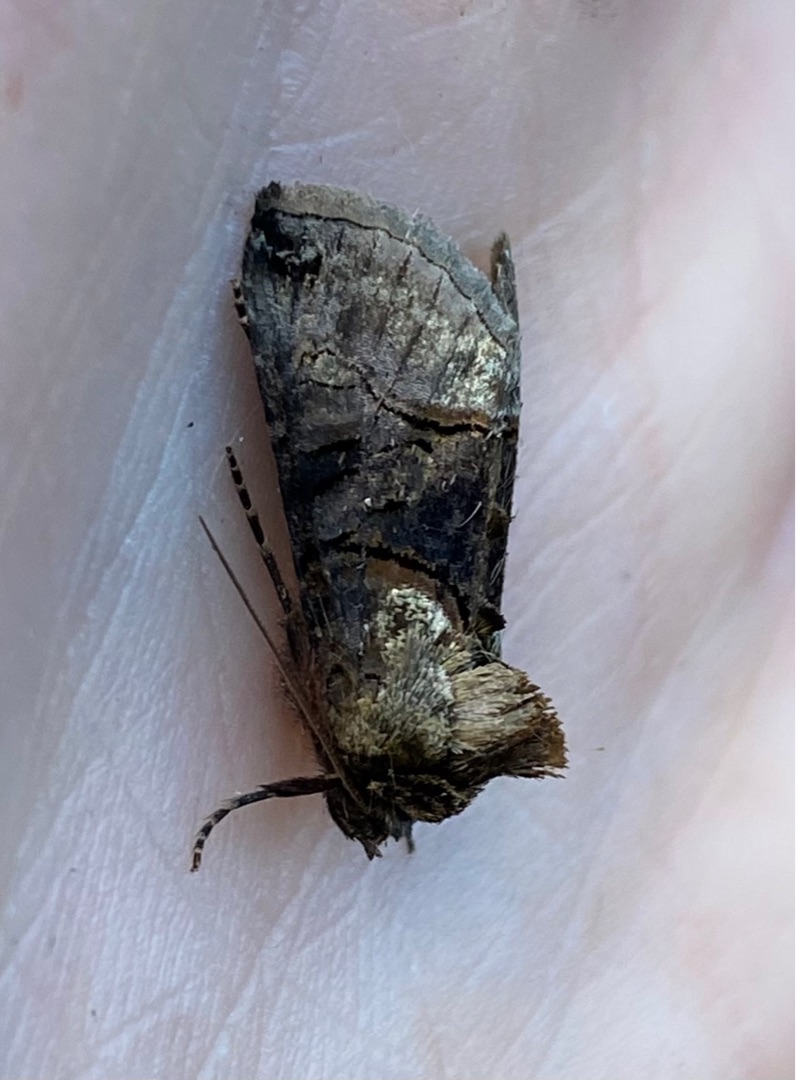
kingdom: Animalia
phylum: Arthropoda
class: Insecta
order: Lepidoptera
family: Noctuidae
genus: Abrostola
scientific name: Abrostola tripartita
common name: Brun nældeugle
